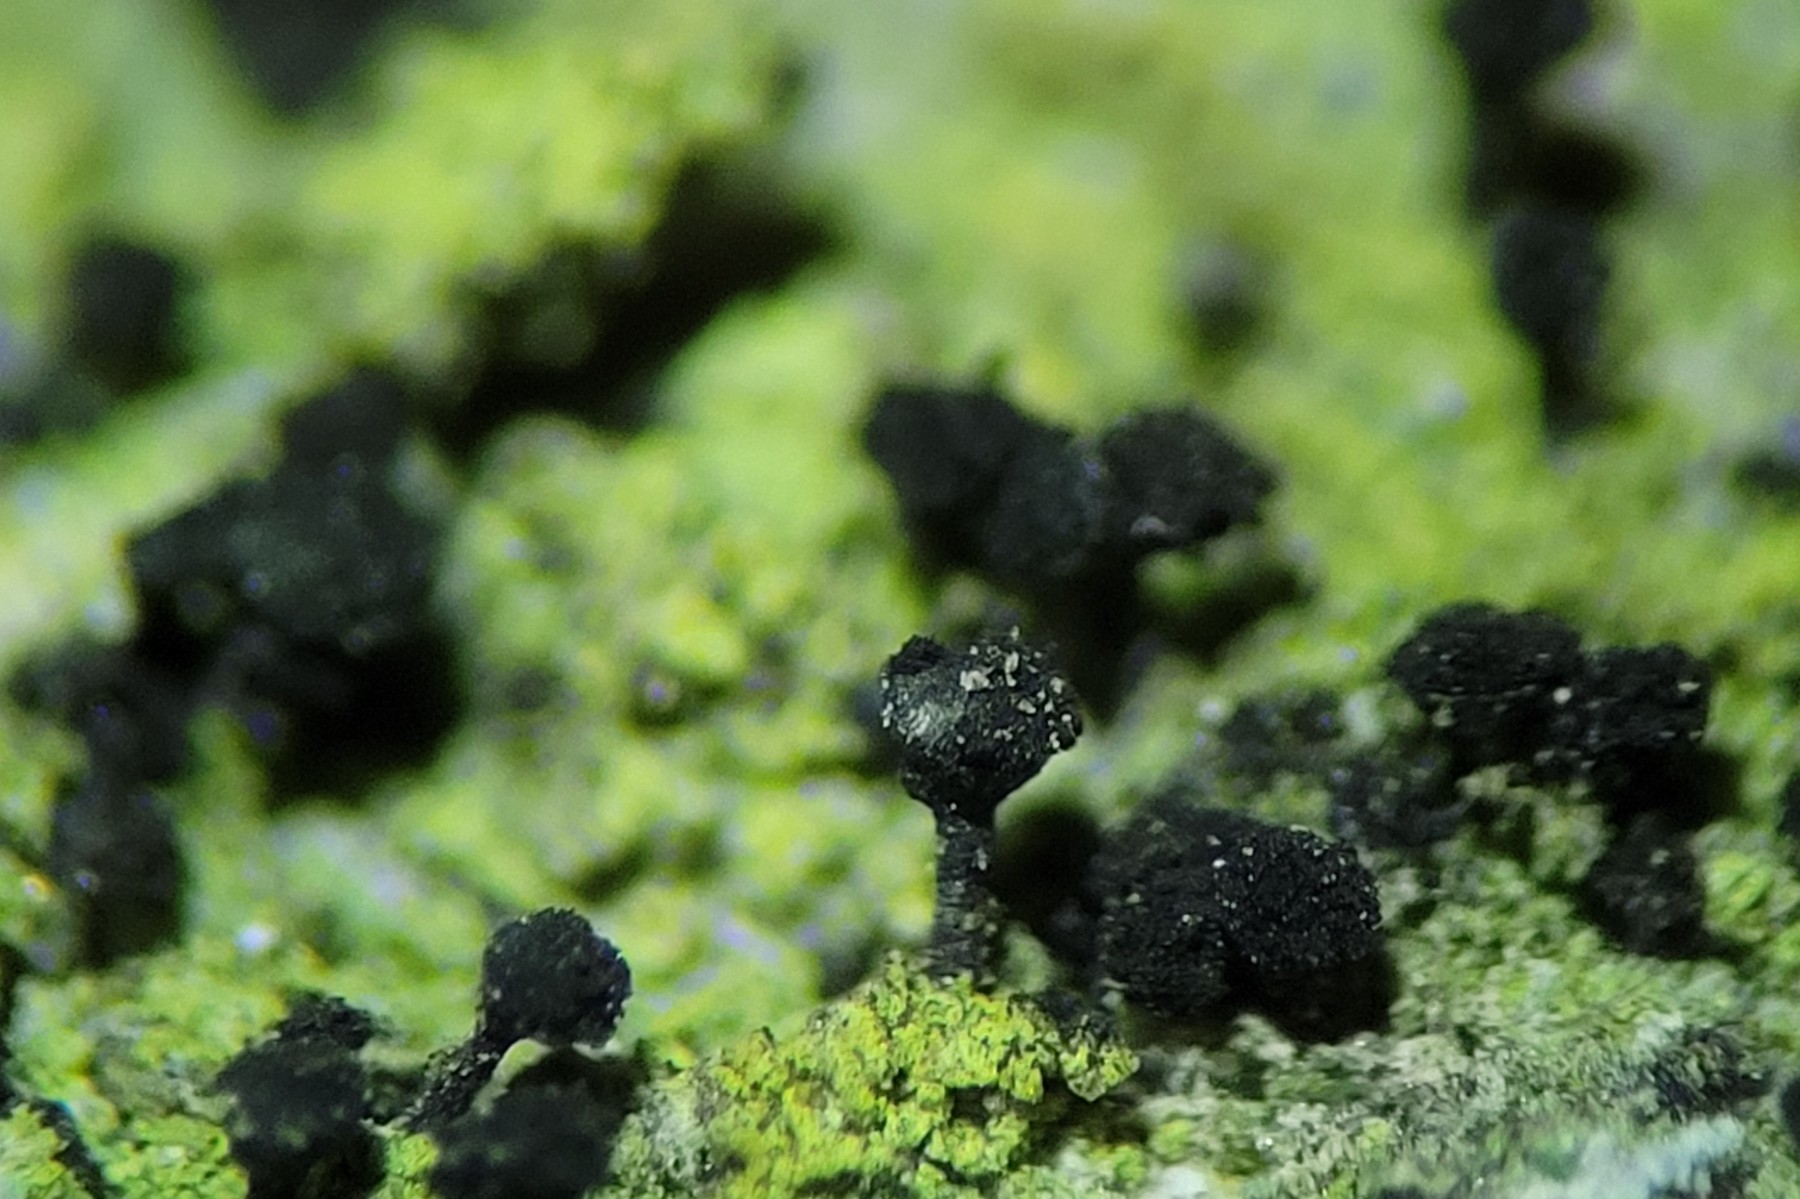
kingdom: Fungi
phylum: Ascomycota
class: Lecanoromycetes
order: Caliciales
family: Caliciaceae
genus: Calicium
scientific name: Calicium viride
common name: gulgrøn nålelav
